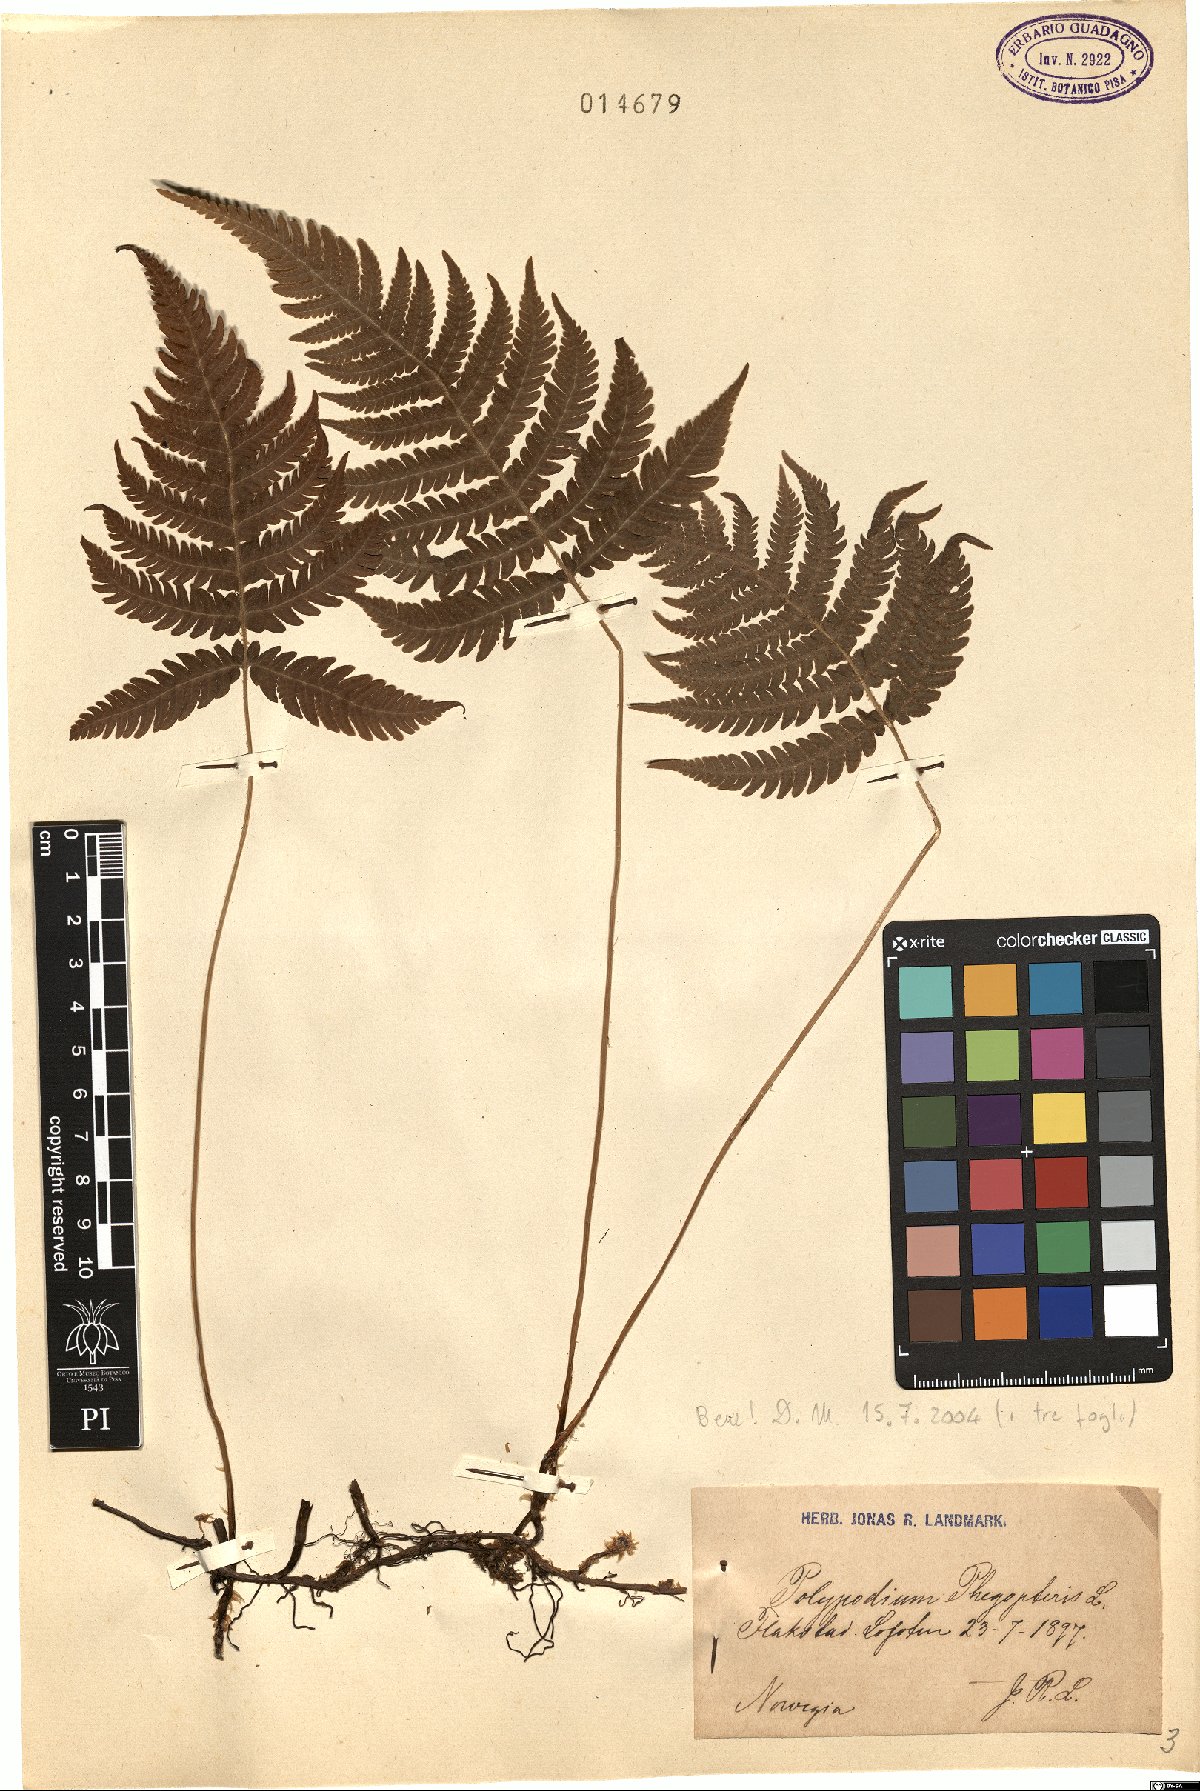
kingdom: Plantae
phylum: Tracheophyta
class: Polypodiopsida
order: Polypodiales
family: Thelypteridaceae
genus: Phegopteris
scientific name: Phegopteris connectilis
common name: Beech fern
